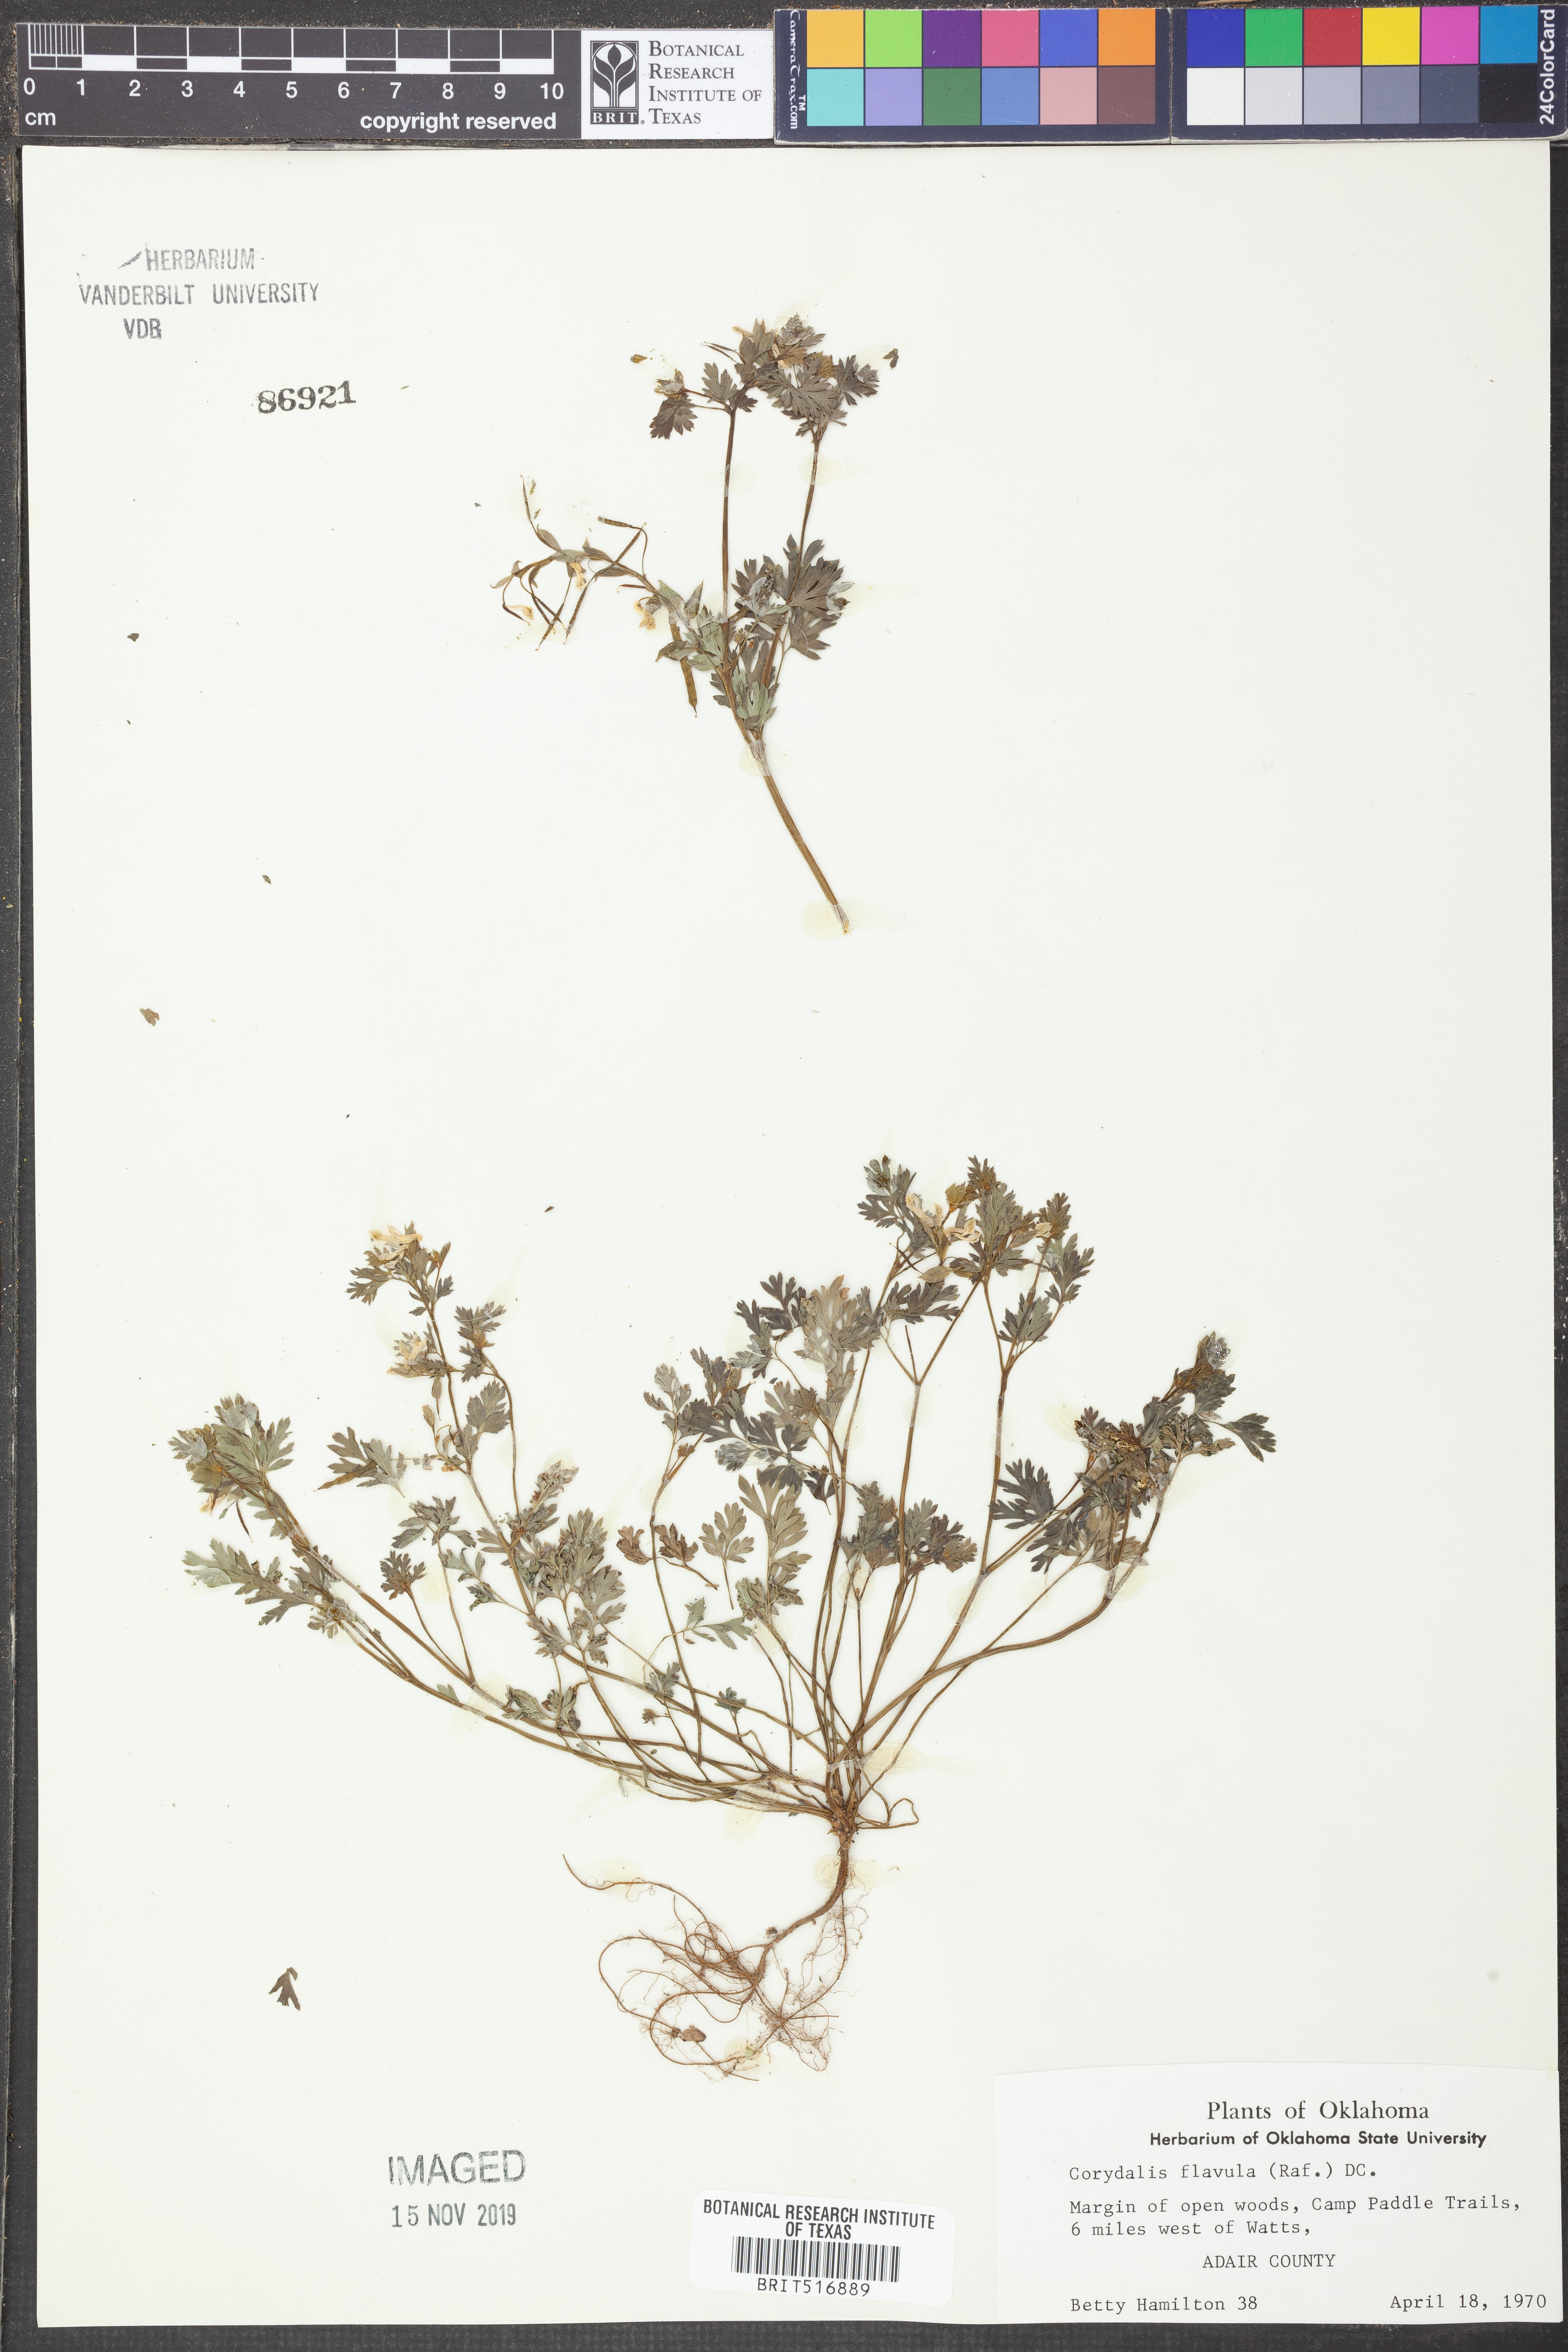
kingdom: Plantae
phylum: Tracheophyta
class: Magnoliopsida
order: Ranunculales
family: Papaveraceae
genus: Corydalis
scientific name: Corydalis flavula
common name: Yellow corydalis
